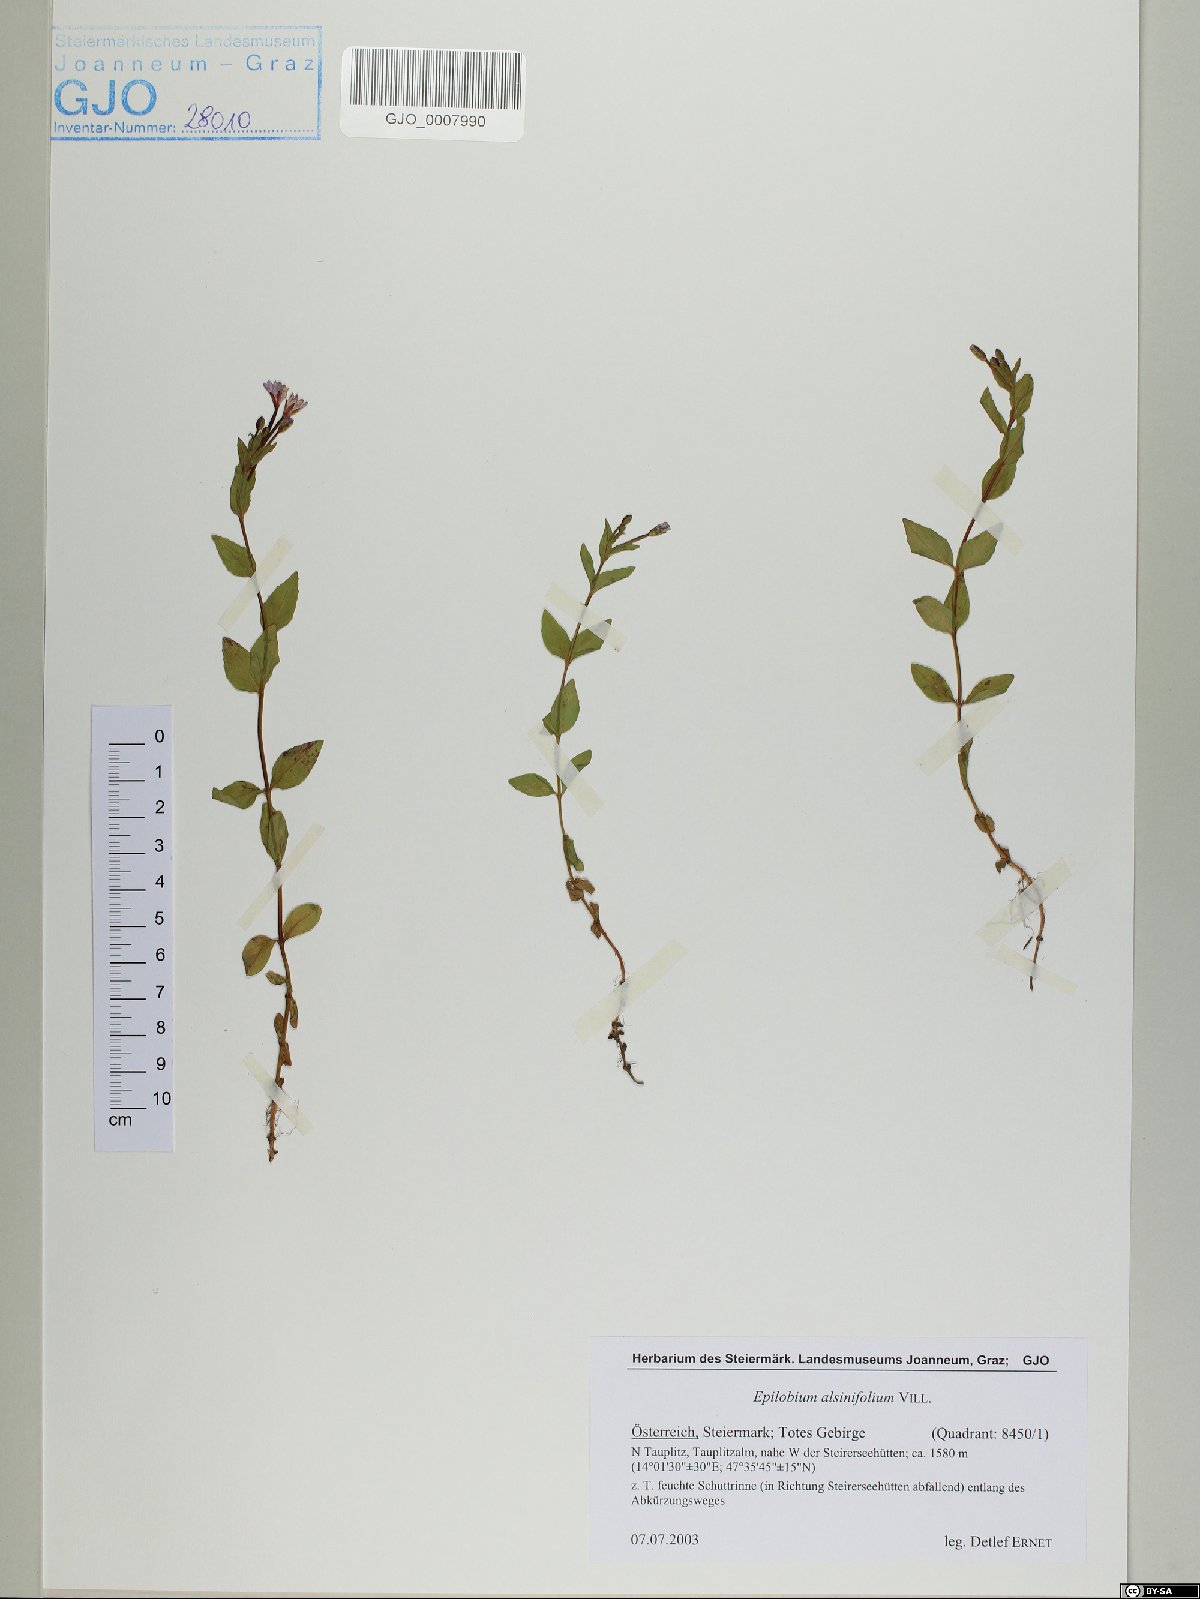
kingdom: Plantae
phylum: Tracheophyta
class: Magnoliopsida
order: Myrtales
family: Onagraceae
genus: Epilobium
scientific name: Epilobium alsinifolium
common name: Chickweed willowherb
